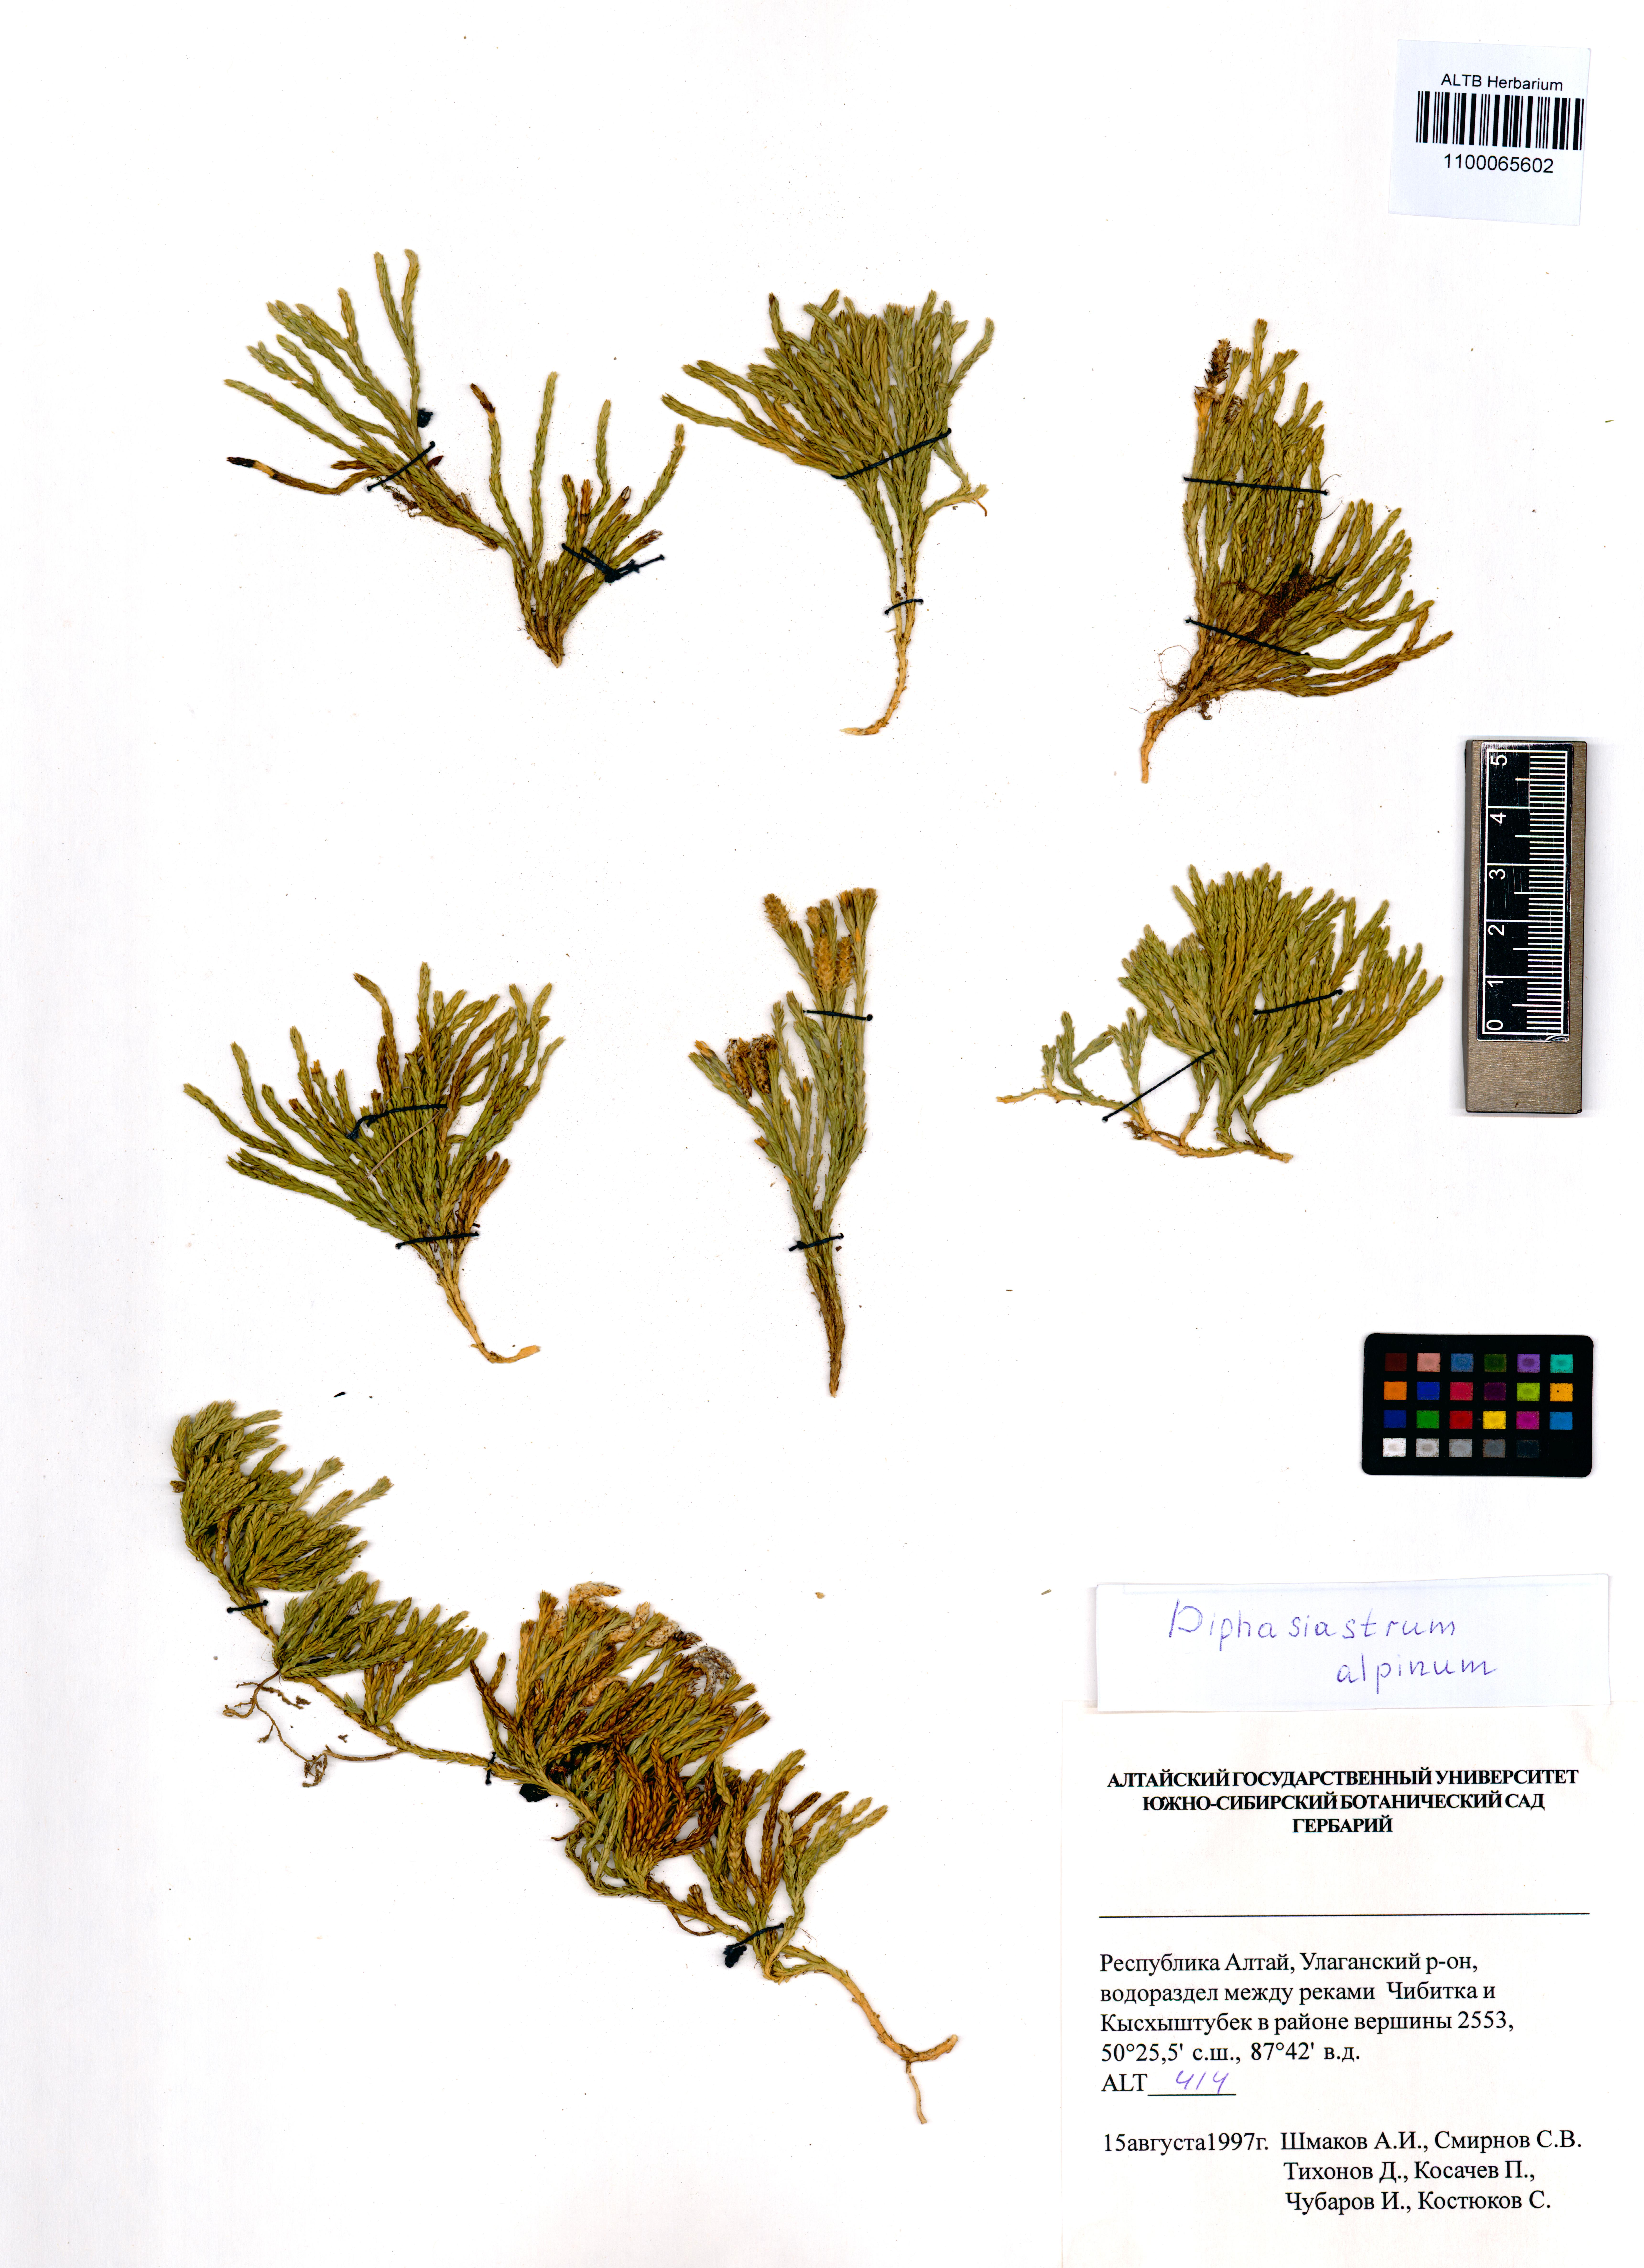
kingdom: Plantae
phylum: Tracheophyta
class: Lycopodiopsida
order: Lycopodiales
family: Lycopodiaceae
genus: Diphasiastrum
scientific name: Diphasiastrum alpinum
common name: Alpine clubmoss
